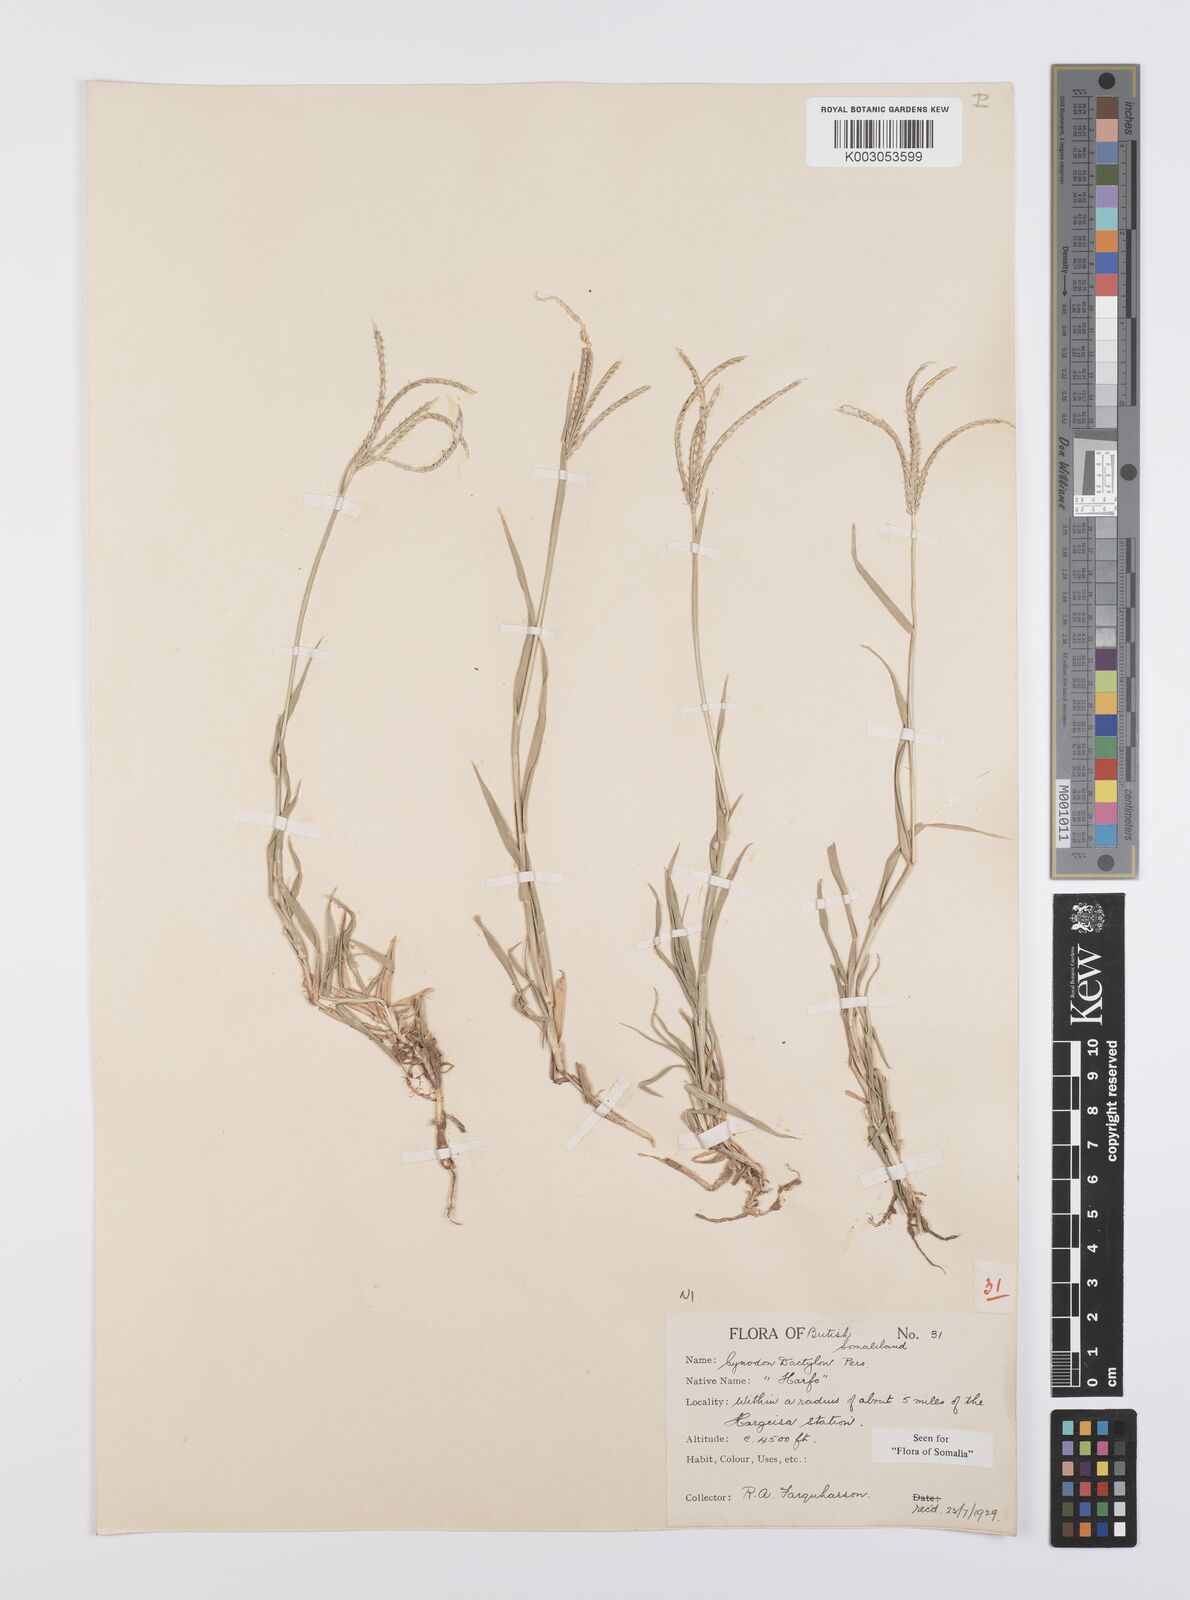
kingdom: Plantae
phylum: Tracheophyta
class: Liliopsida
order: Poales
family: Poaceae
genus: Cynodon
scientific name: Cynodon dactylon
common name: Bermuda grass
